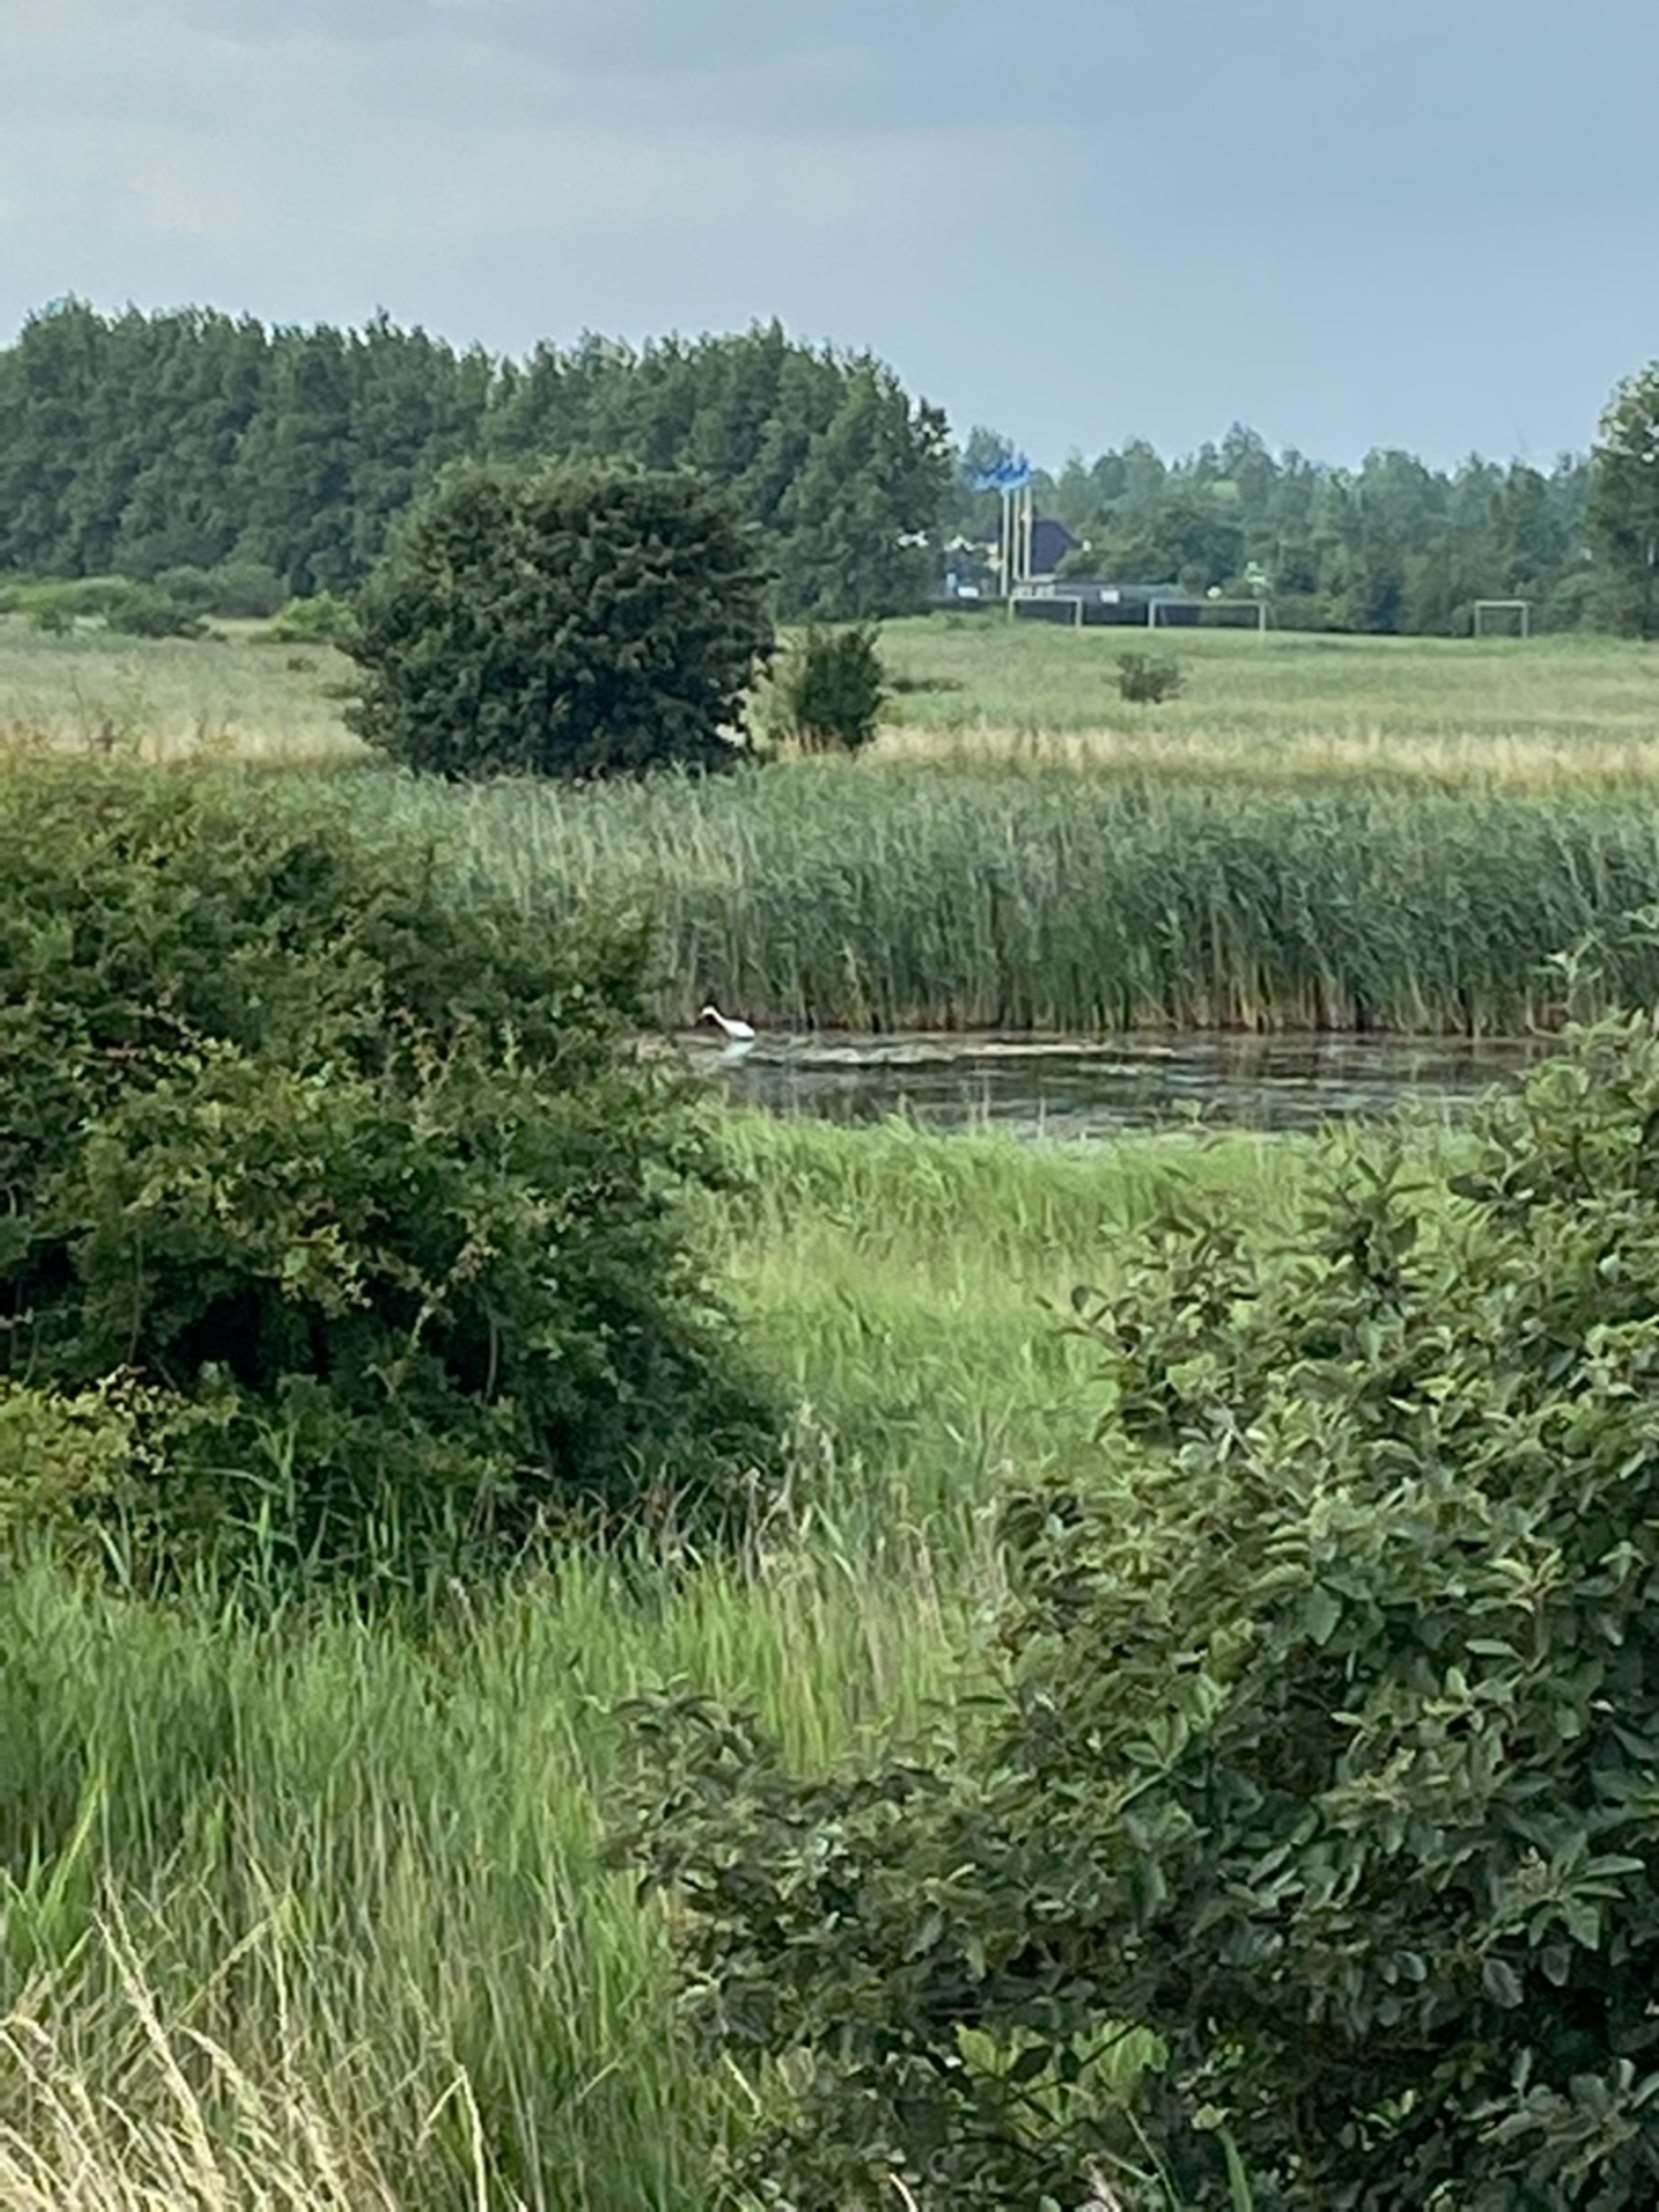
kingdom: Animalia
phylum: Chordata
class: Aves
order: Pelecaniformes
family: Ardeidae
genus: Ardea
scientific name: Ardea alba
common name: Sølvhejre
